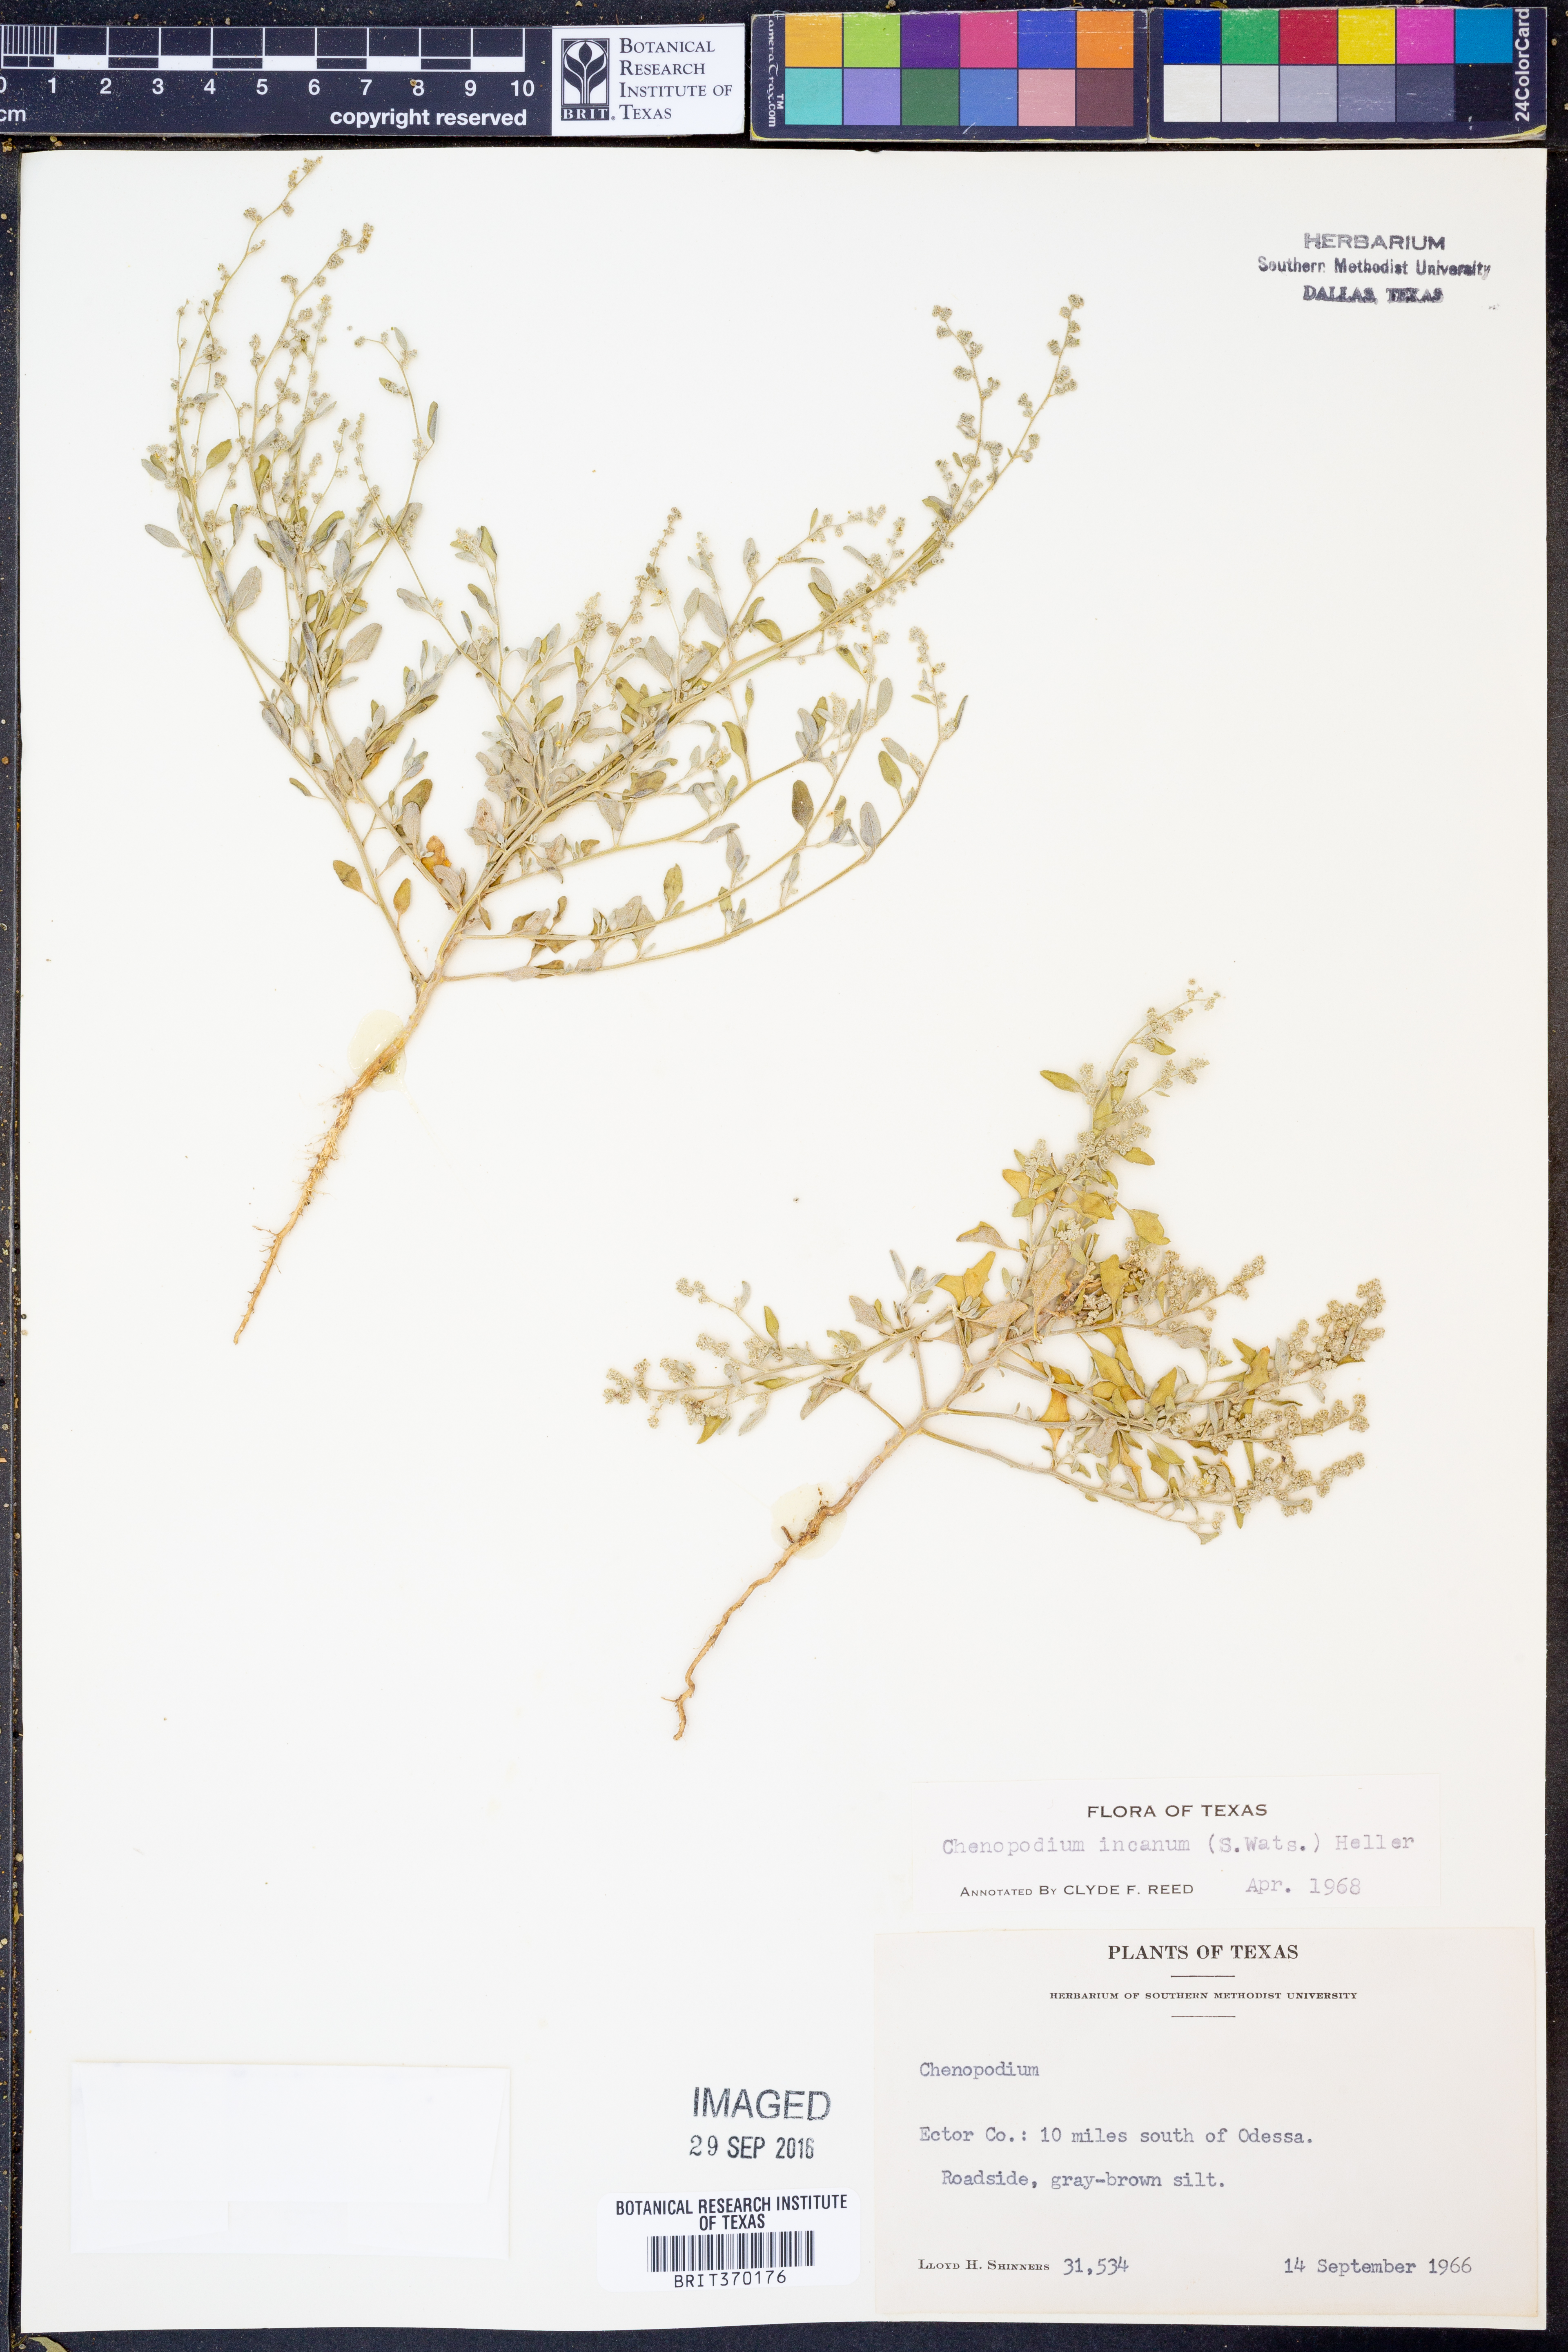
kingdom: Plantae
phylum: Tracheophyta
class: Magnoliopsida
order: Caryophyllales
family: Amaranthaceae
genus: Chenopodium
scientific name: Chenopodium incanum
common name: Hoary goosefoot
